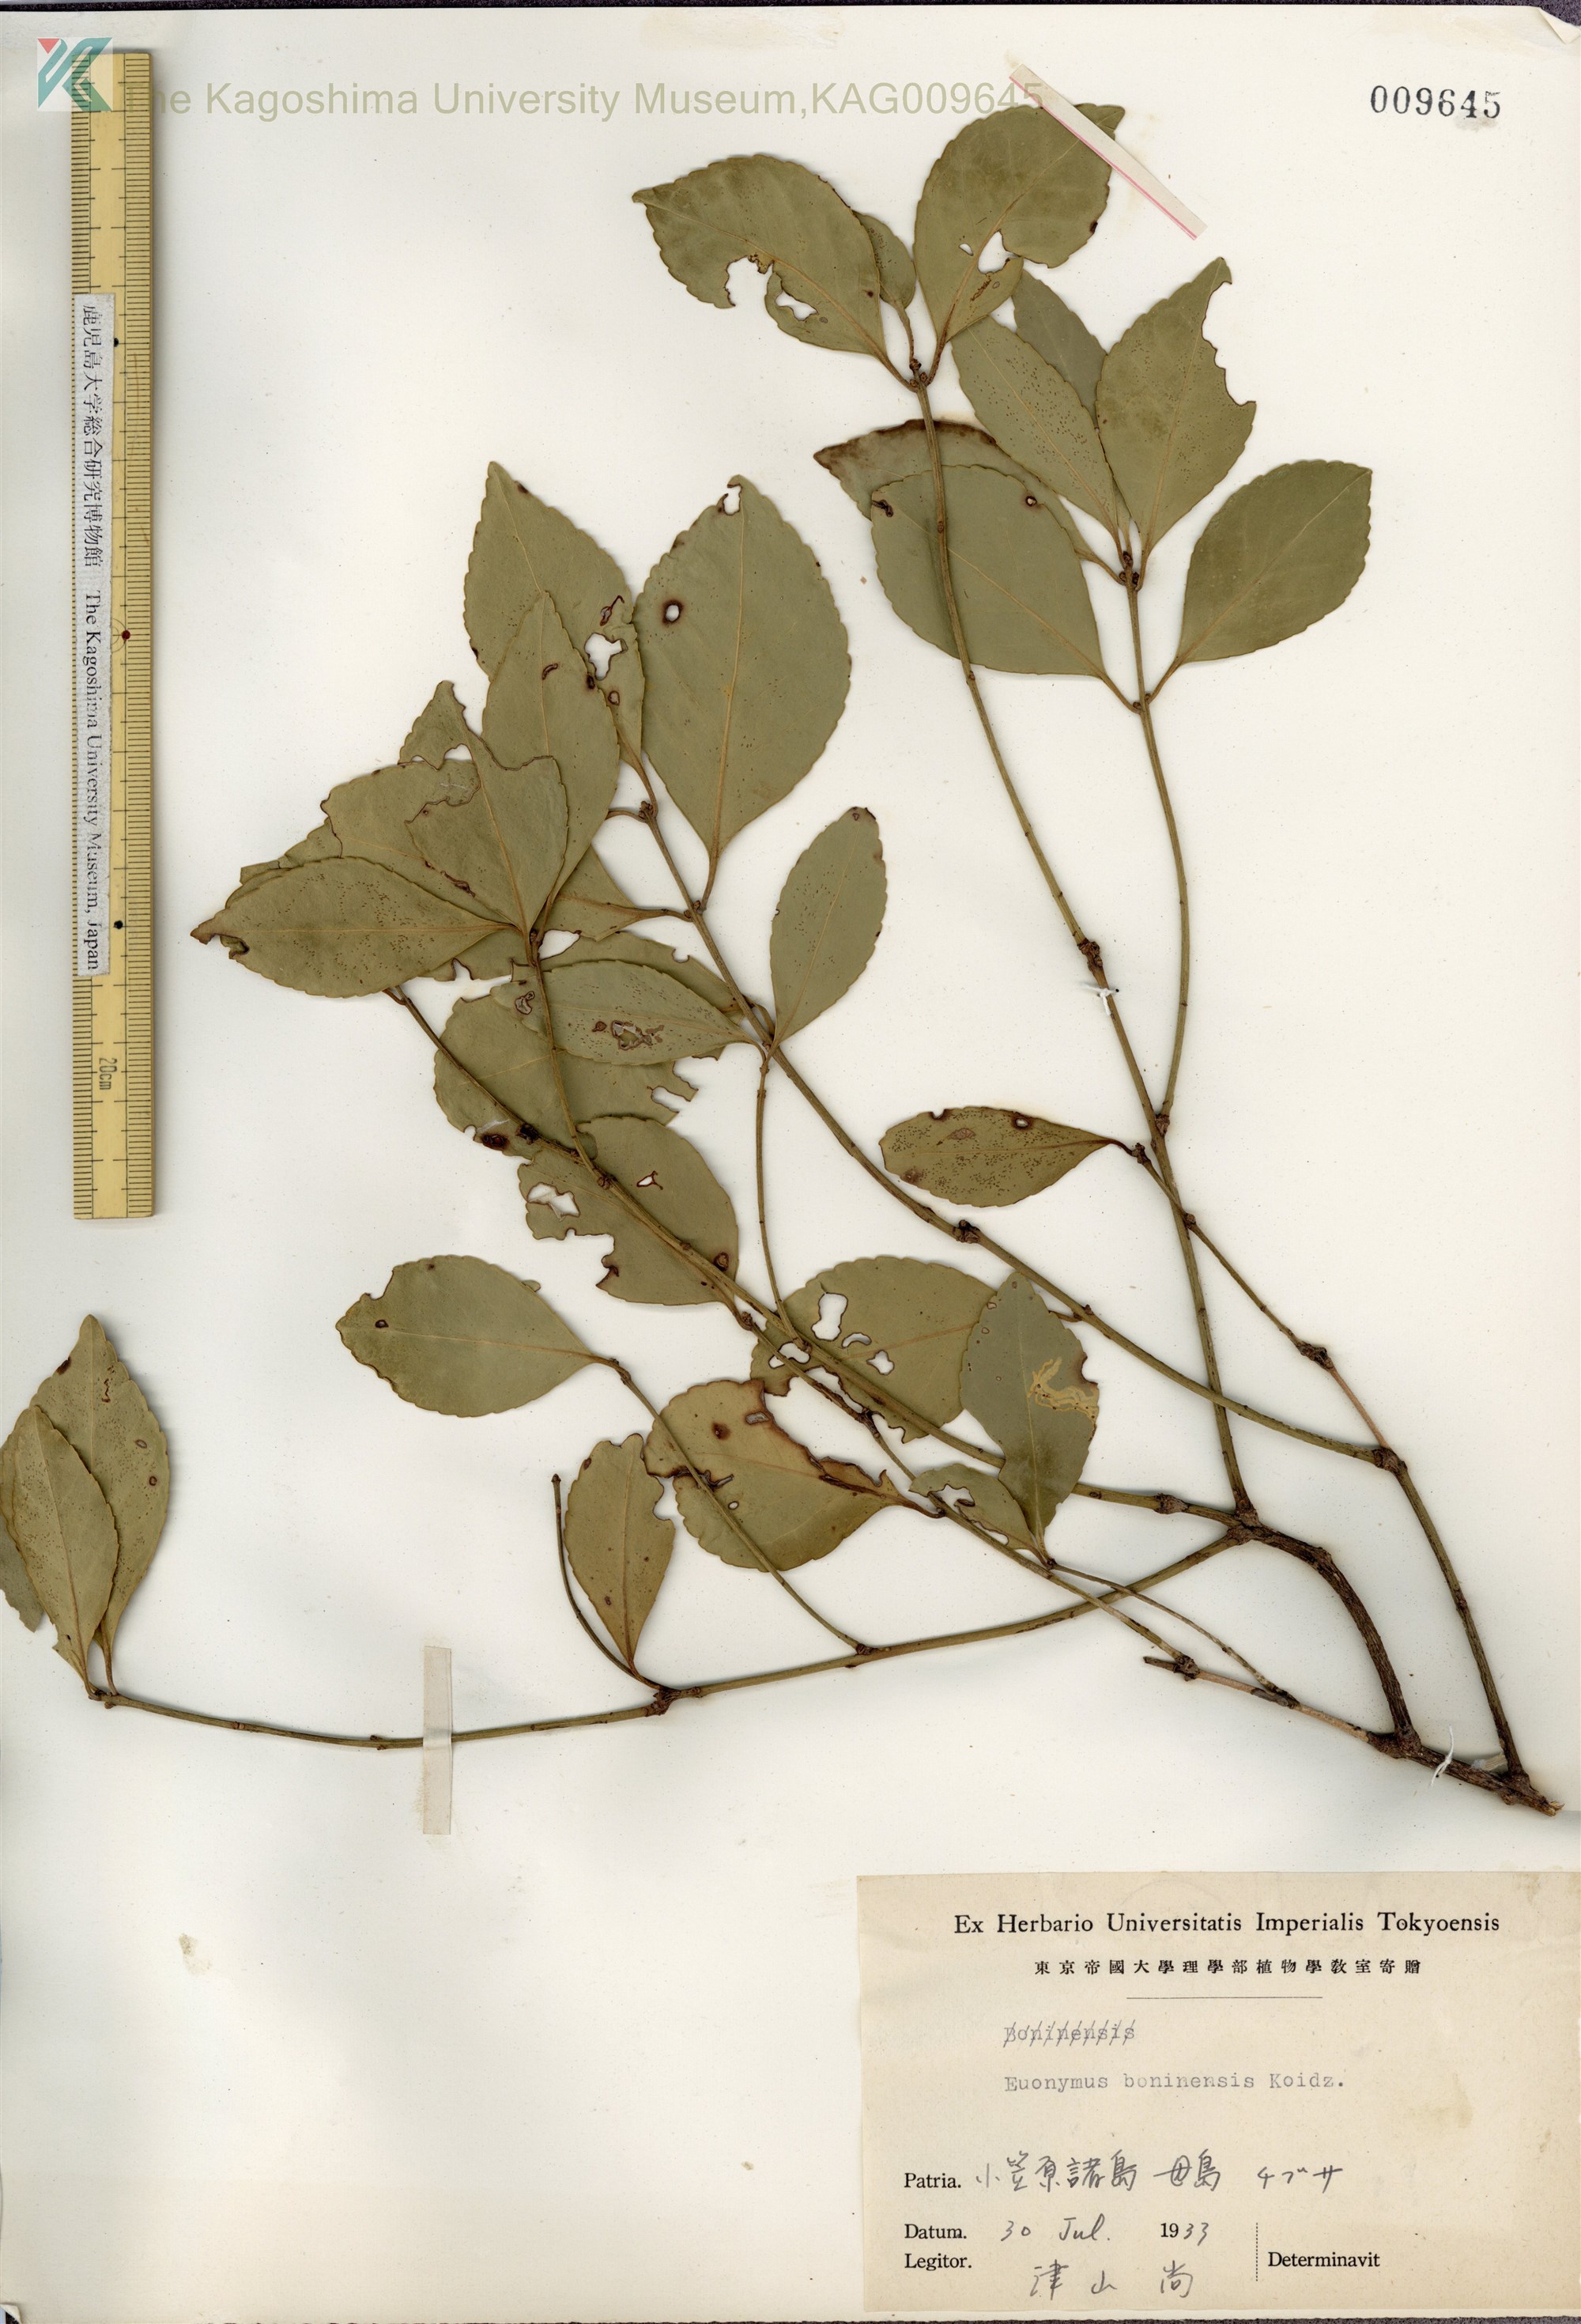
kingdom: Plantae
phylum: Tracheophyta
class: Magnoliopsida
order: Celastrales
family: Celastraceae
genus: Euonymus
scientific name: Euonymus japonicus
